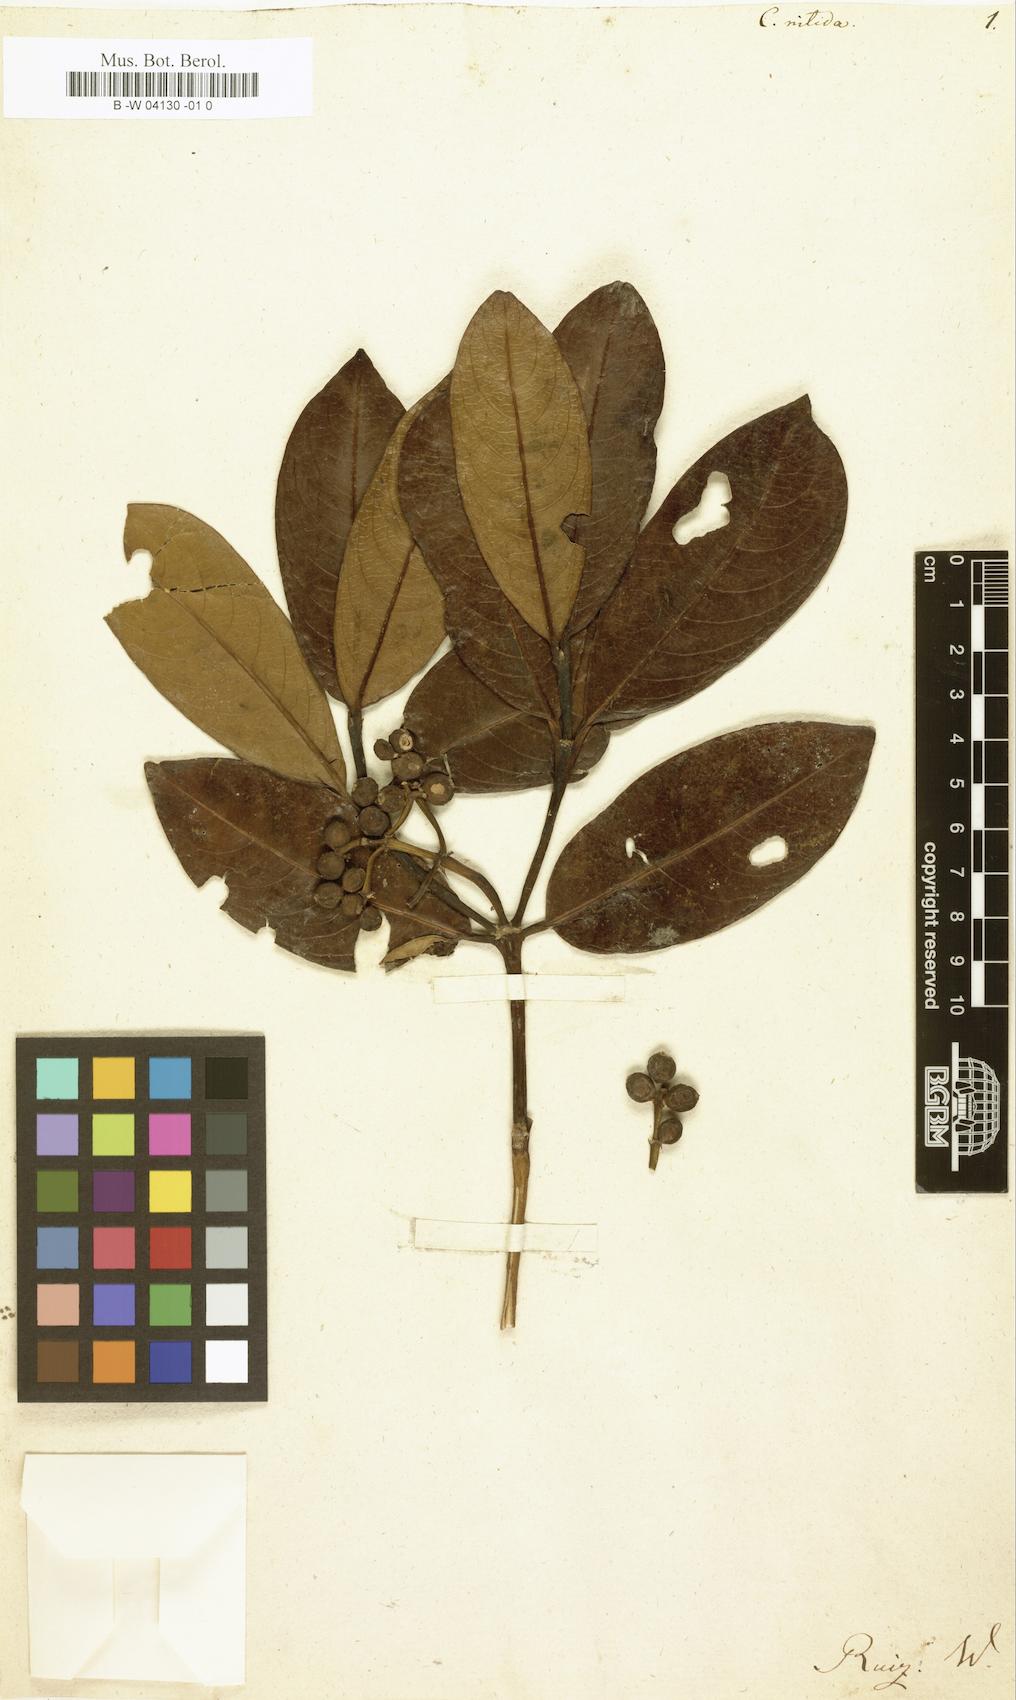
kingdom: Plantae
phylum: Tracheophyta
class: Magnoliopsida
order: Gentianales
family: Rubiaceae
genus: Rudgea
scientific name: Rudgea ciliata
